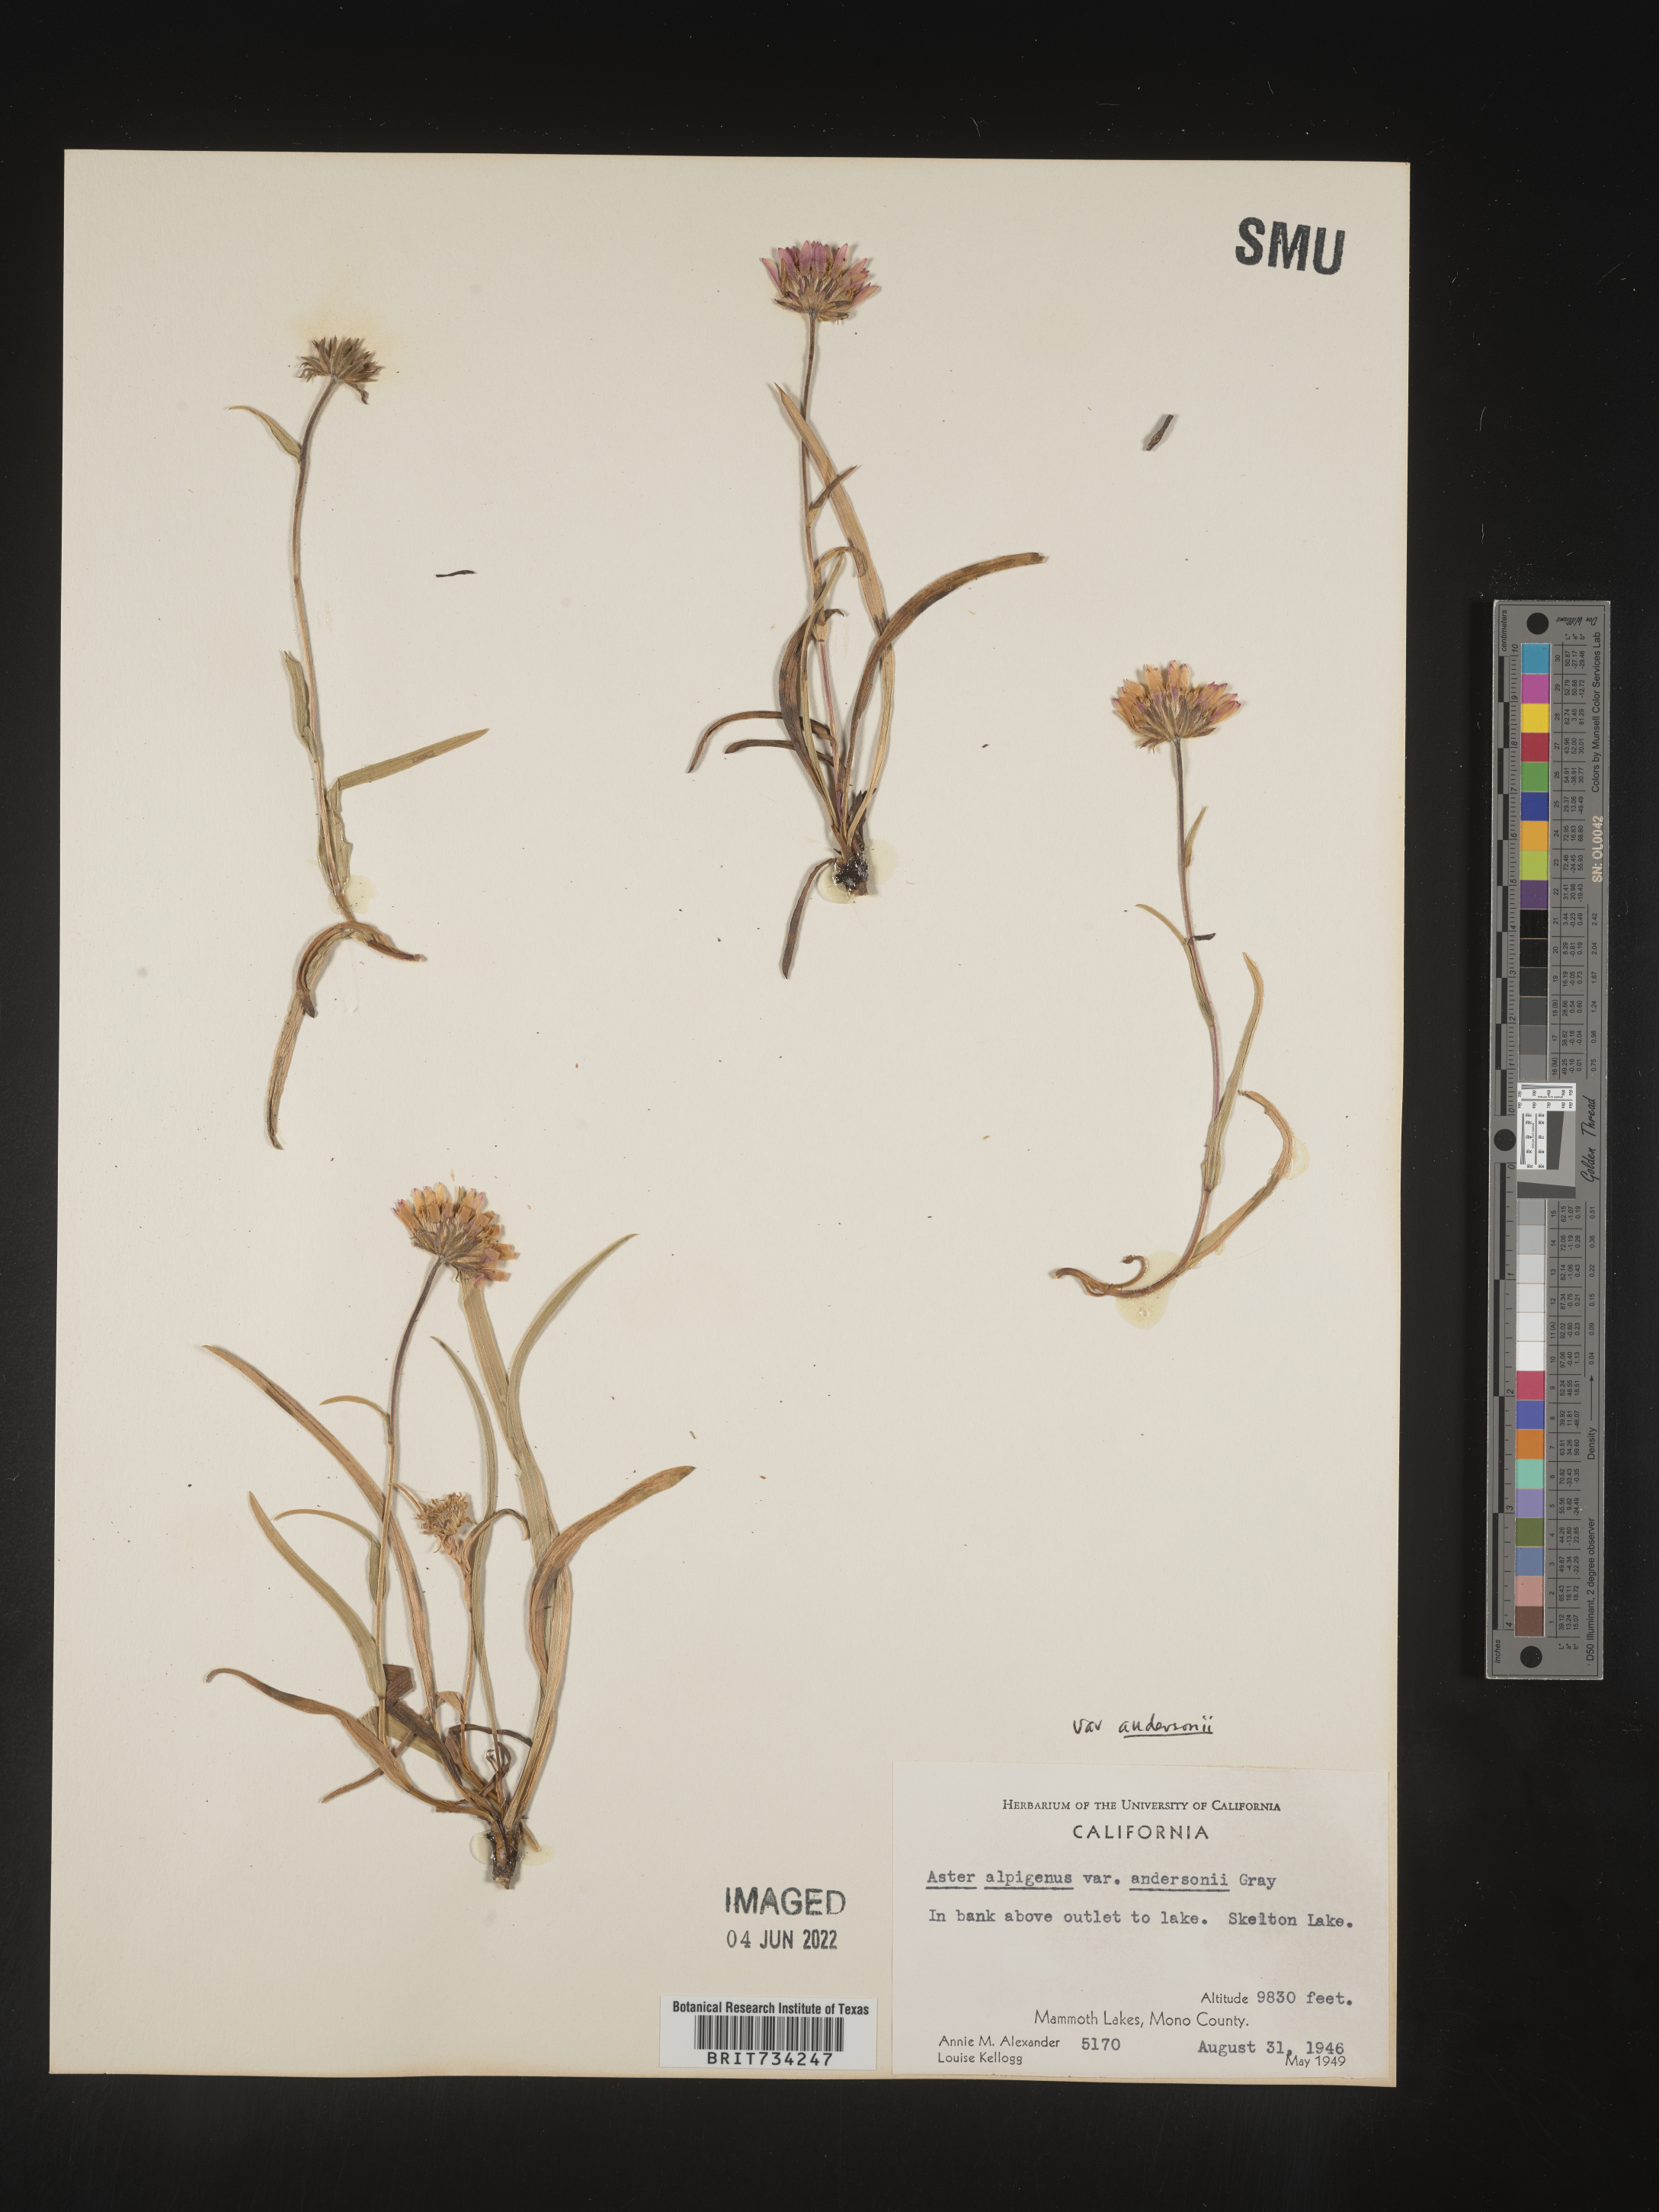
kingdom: Plantae
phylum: Tracheophyta
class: Magnoliopsida
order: Asterales
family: Asteraceae
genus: Oreostemma
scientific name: Oreostemma alpigenum
